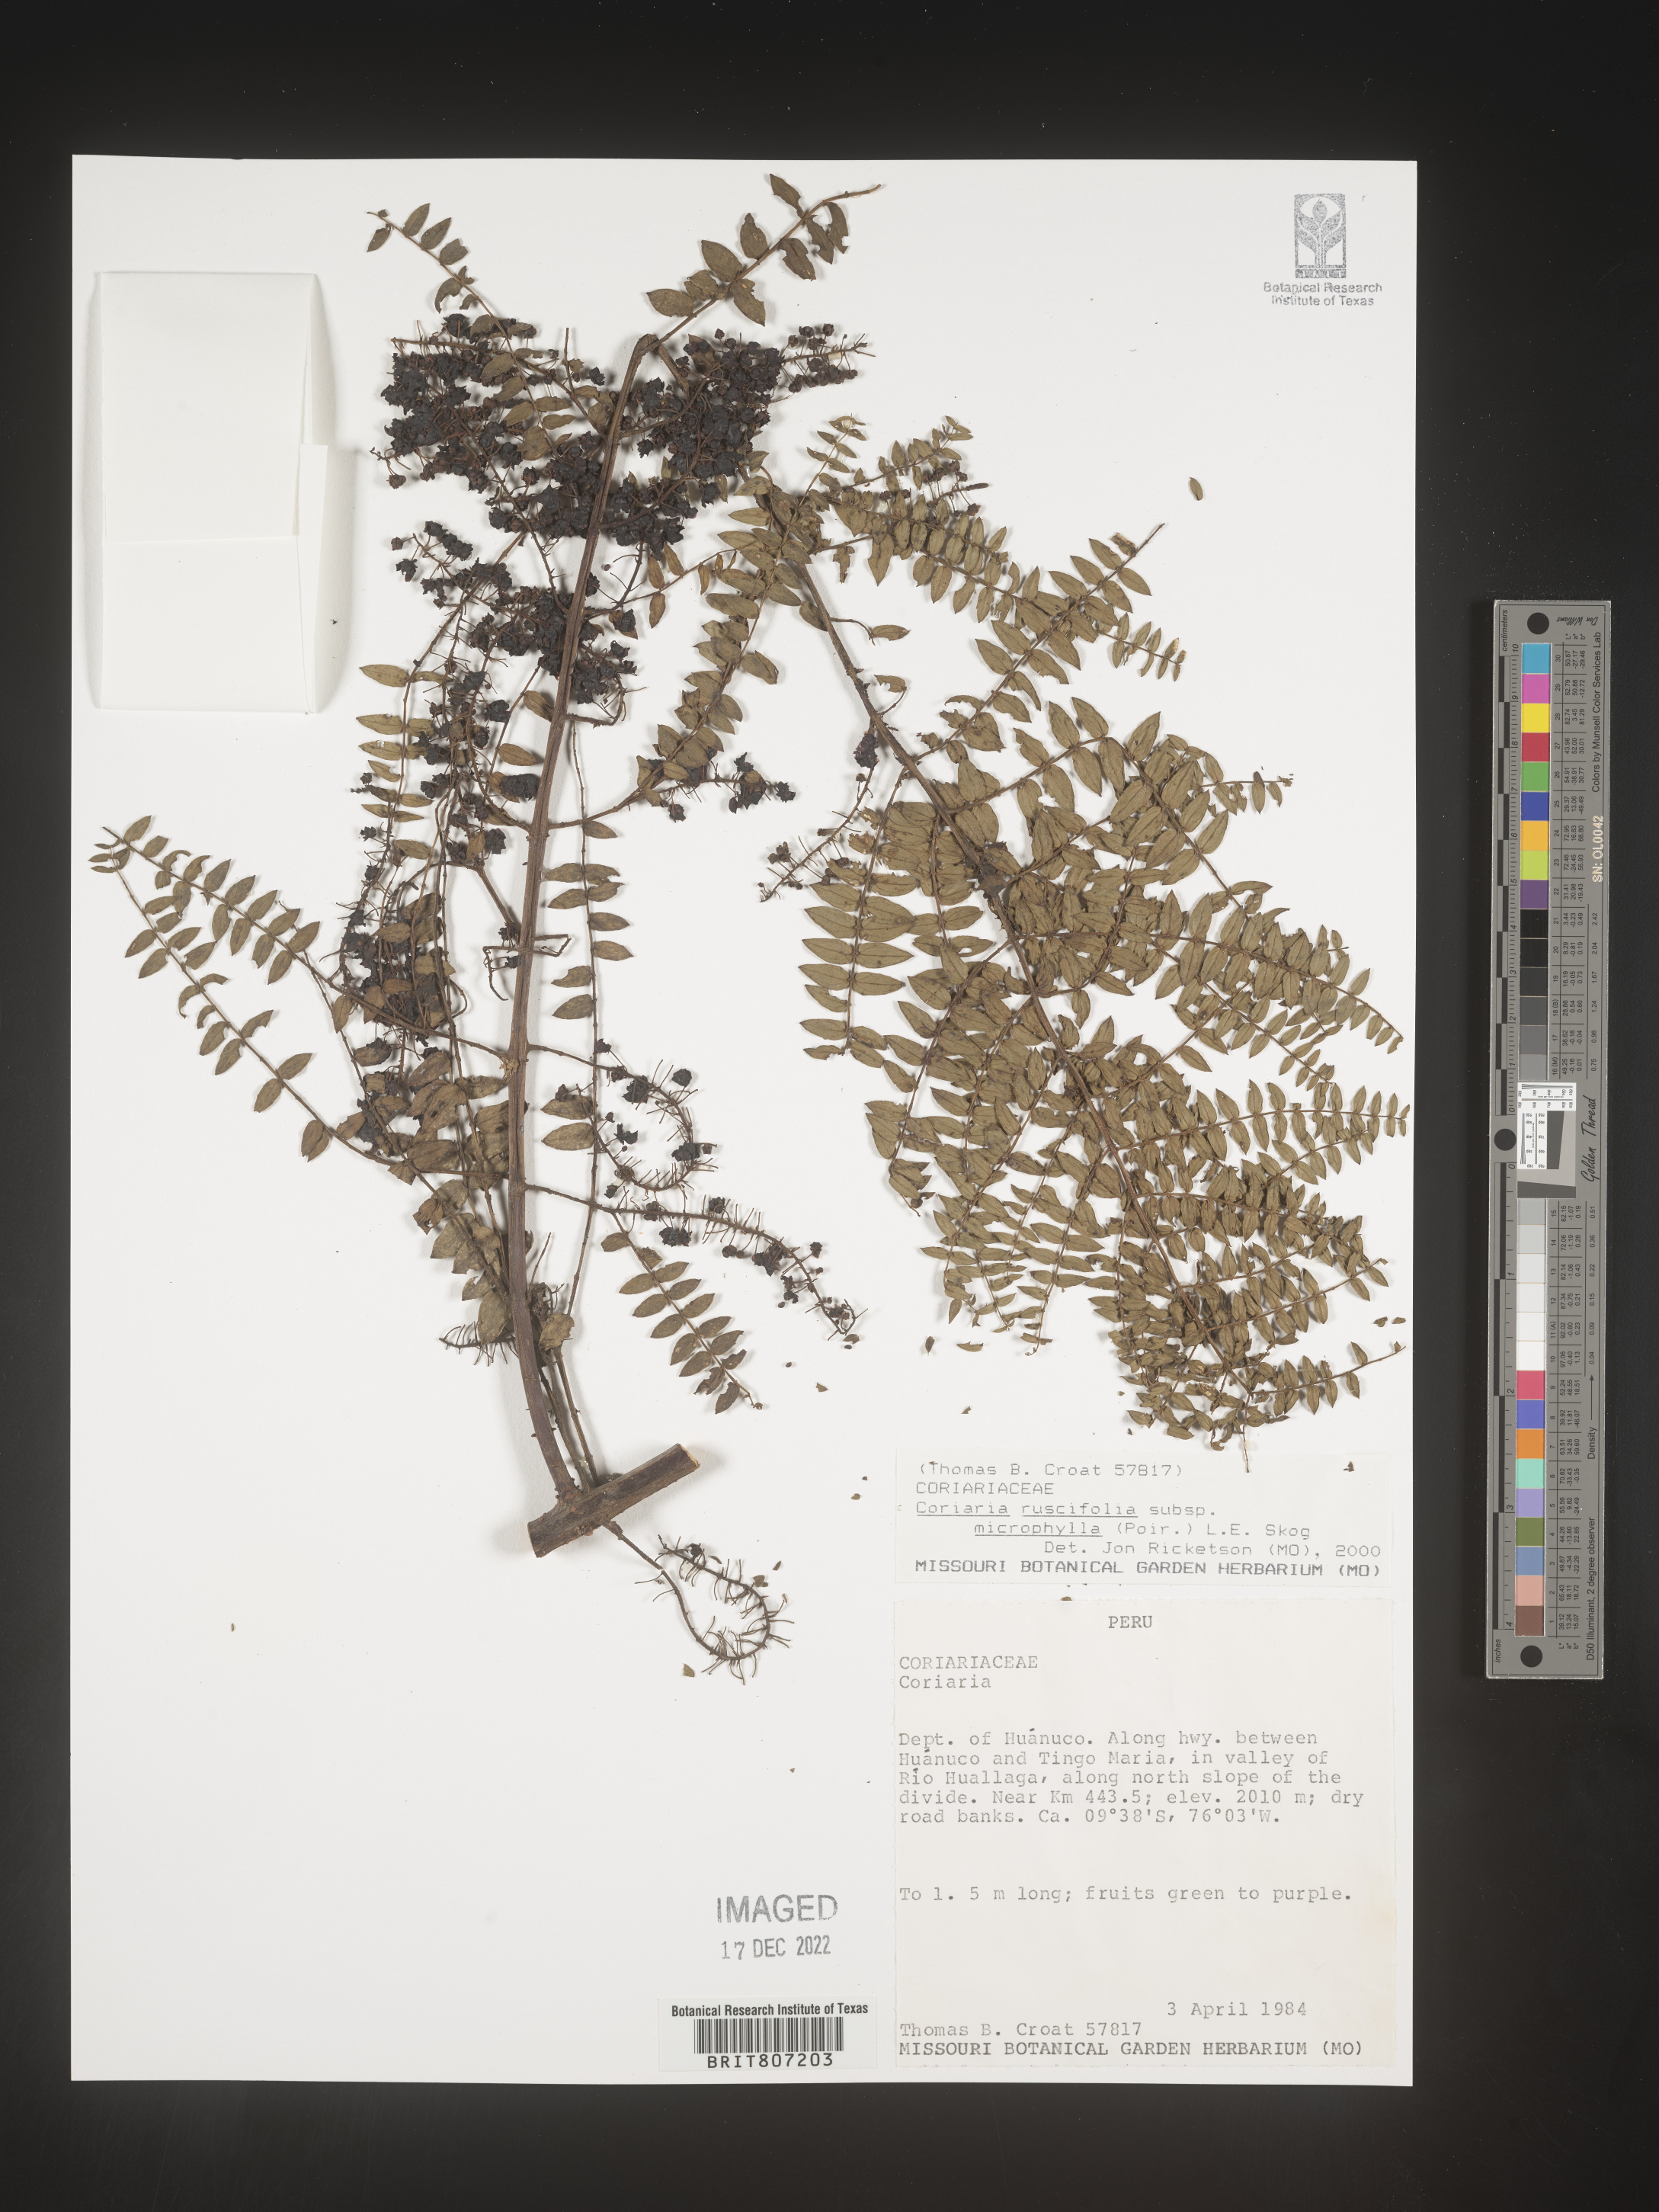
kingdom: Plantae
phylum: Tracheophyta
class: Magnoliopsida
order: Cucurbitales
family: Coriariaceae
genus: Coriaria
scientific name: Coriaria
